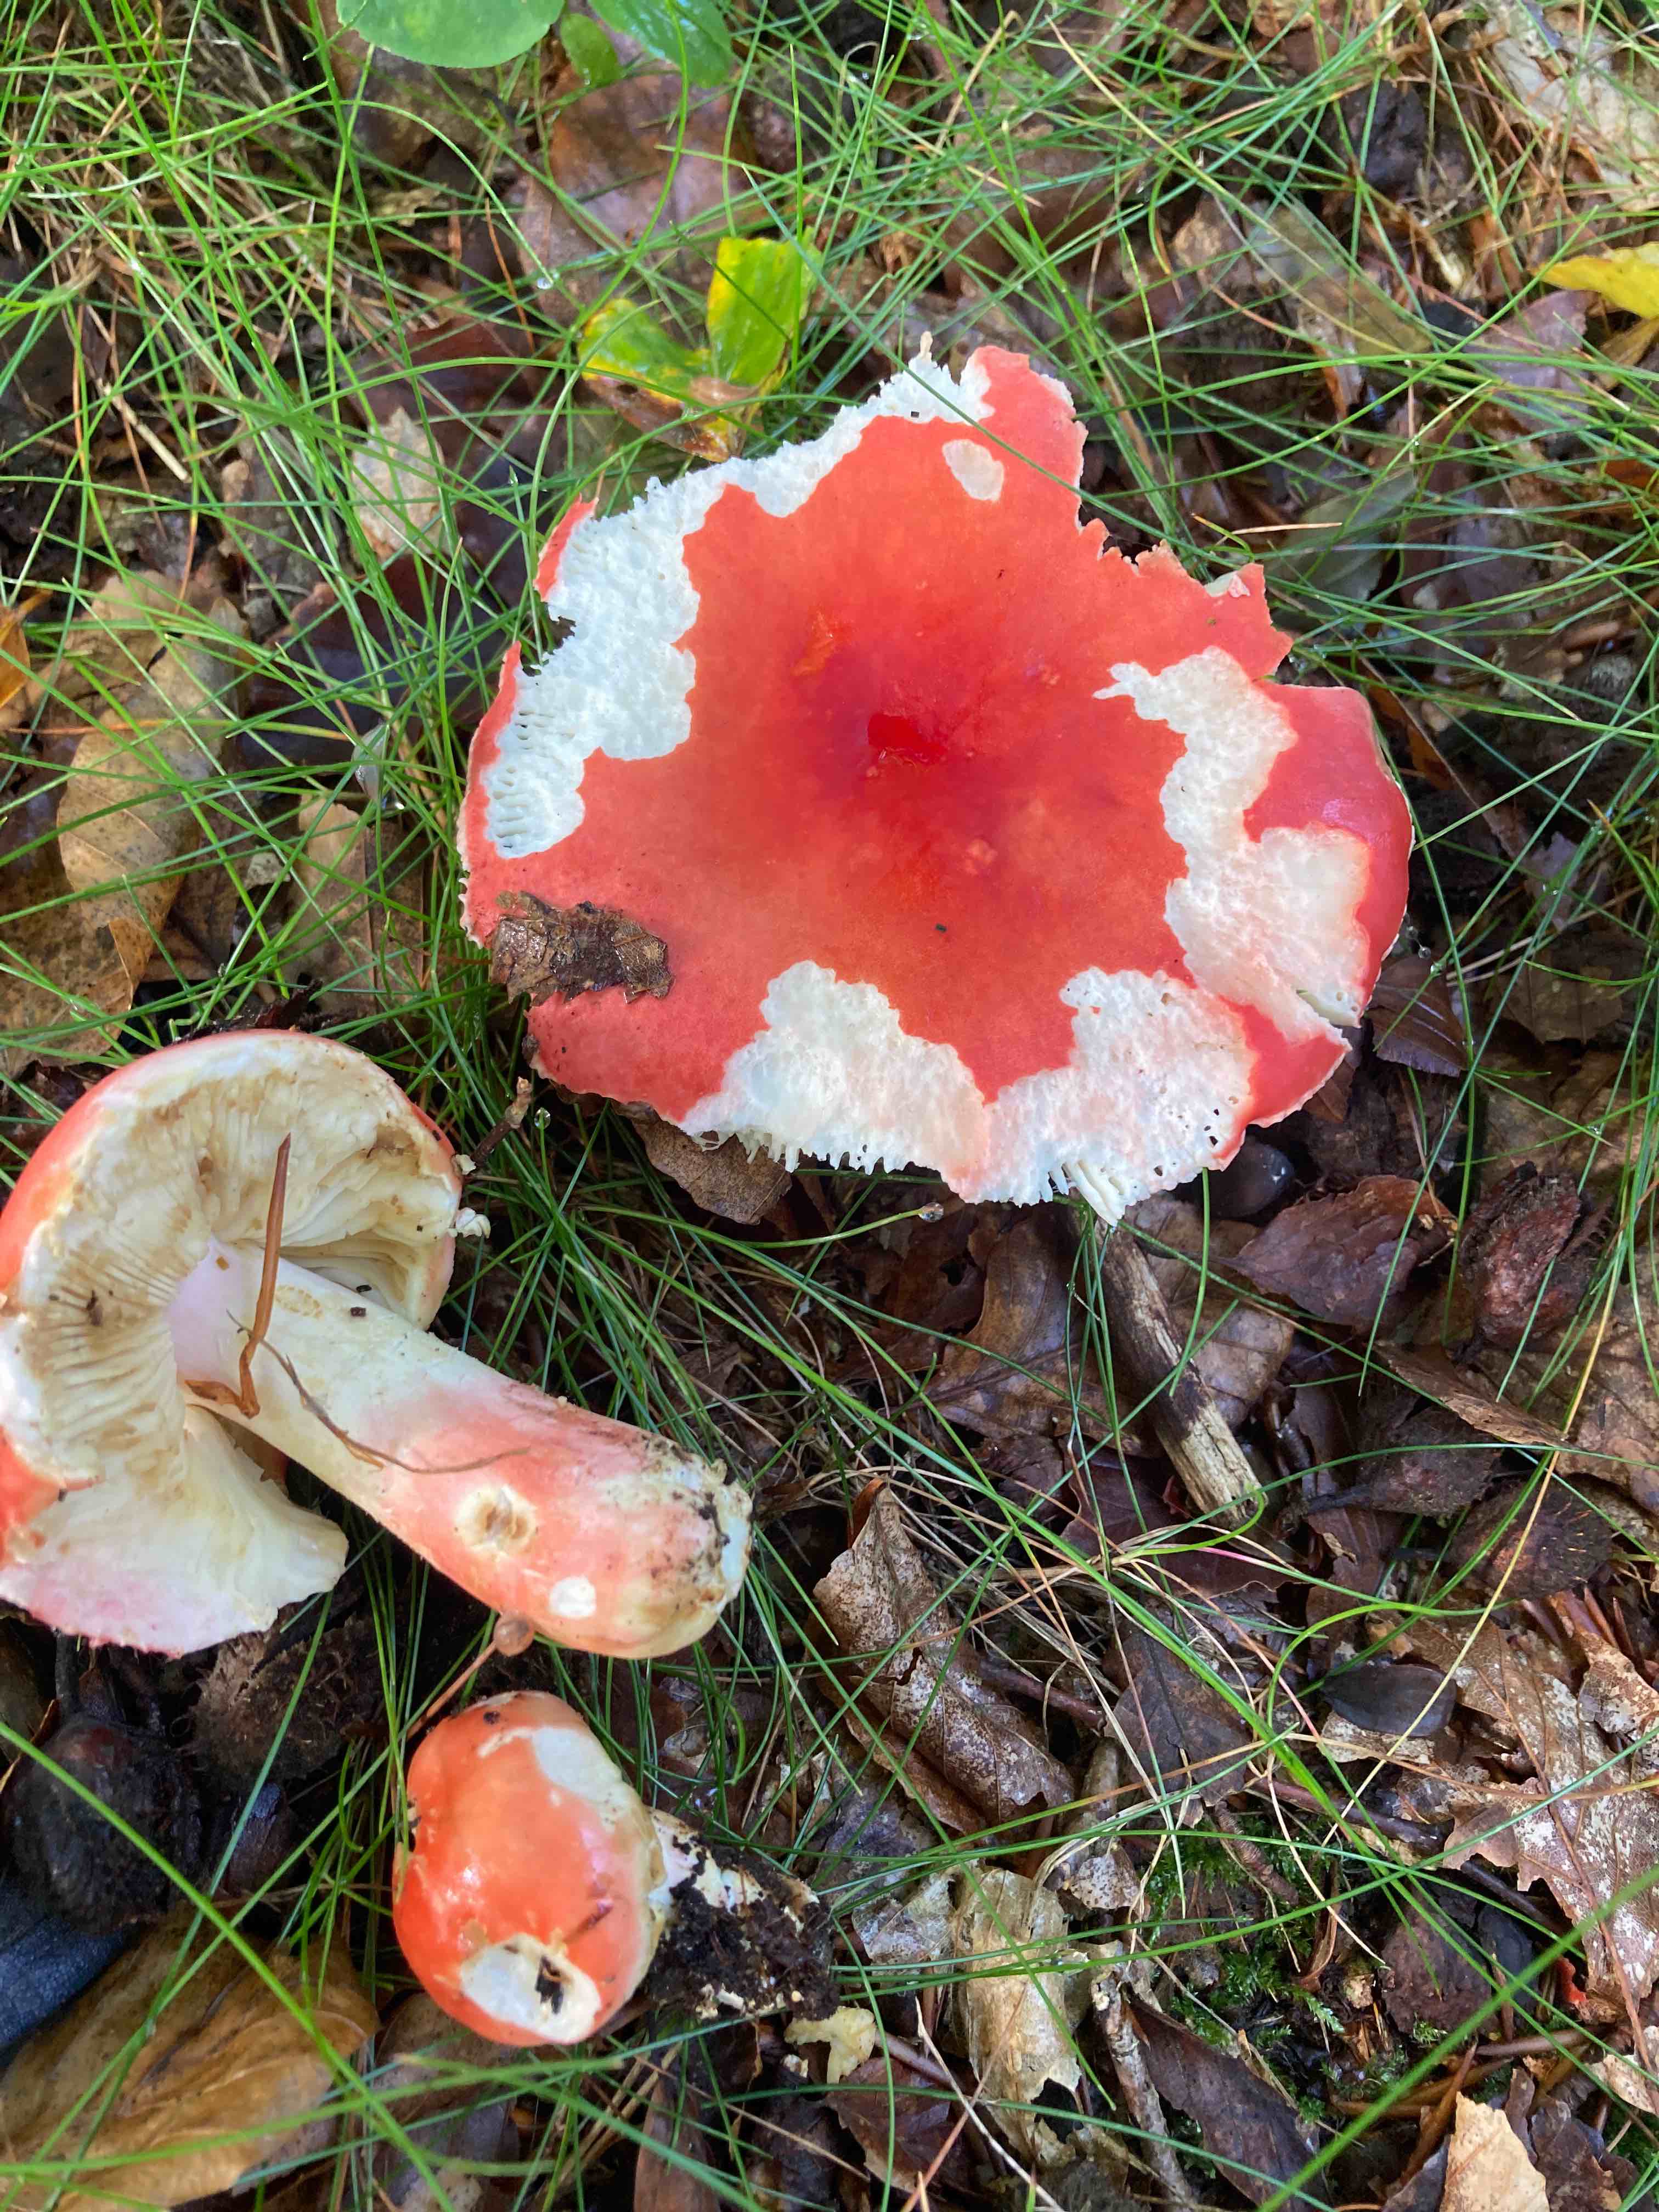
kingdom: Fungi
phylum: Basidiomycota
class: Agaricomycetes
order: Russulales
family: Russulaceae
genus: Russula
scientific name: Russula rosea
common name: fastkødet skørhat
